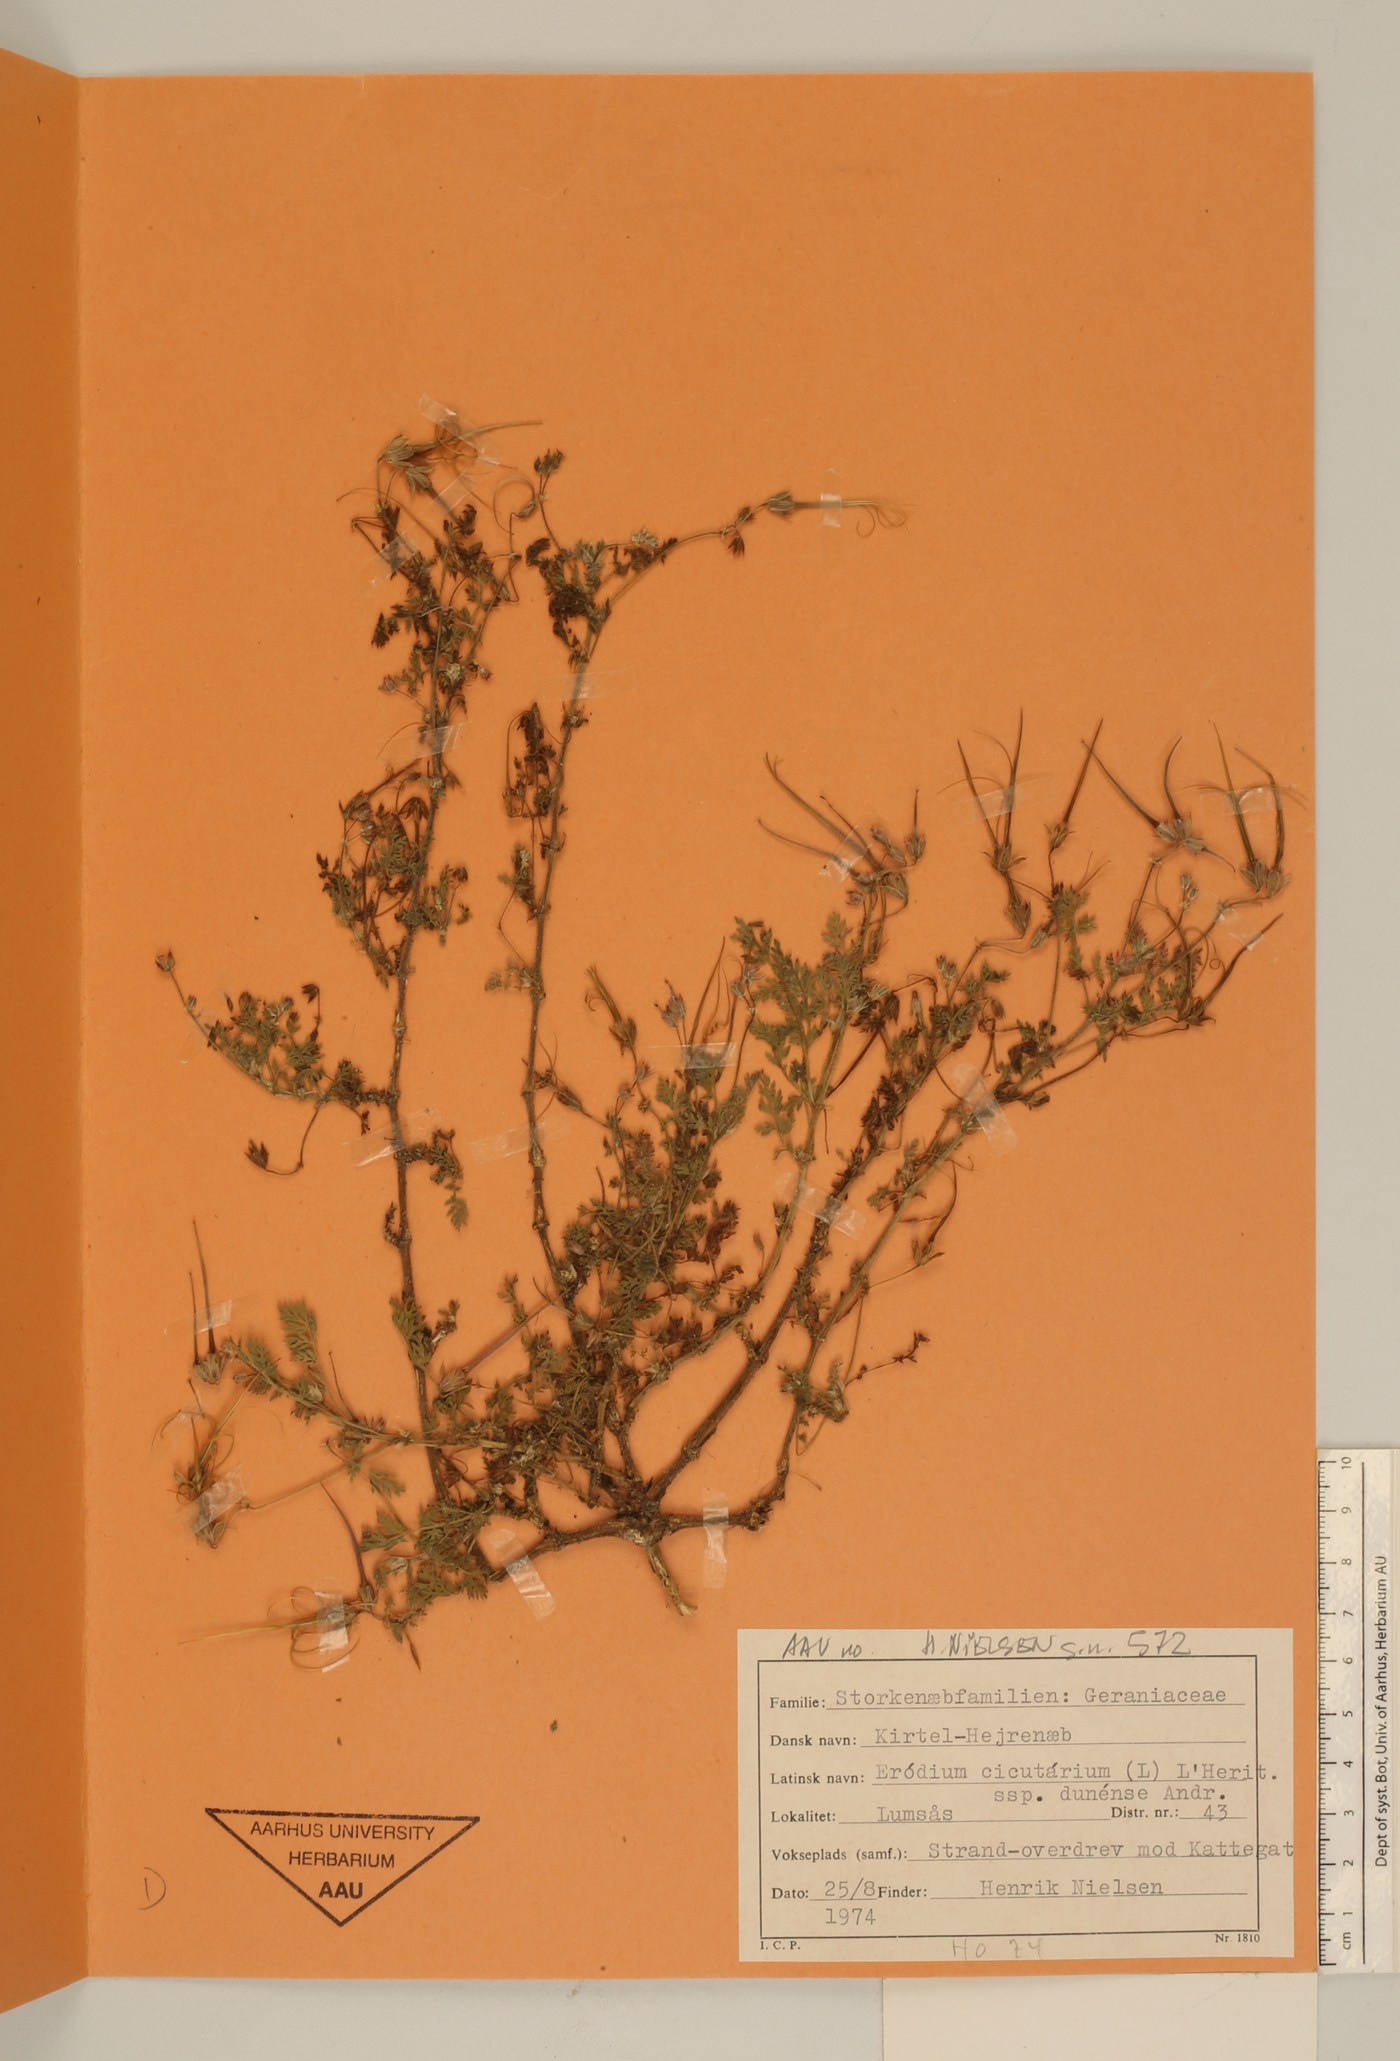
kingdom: Plantae
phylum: Tracheophyta
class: Magnoliopsida
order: Geraniales
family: Geraniaceae
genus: Erodium
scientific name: Erodium cicutarium
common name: Common stork's-bill
